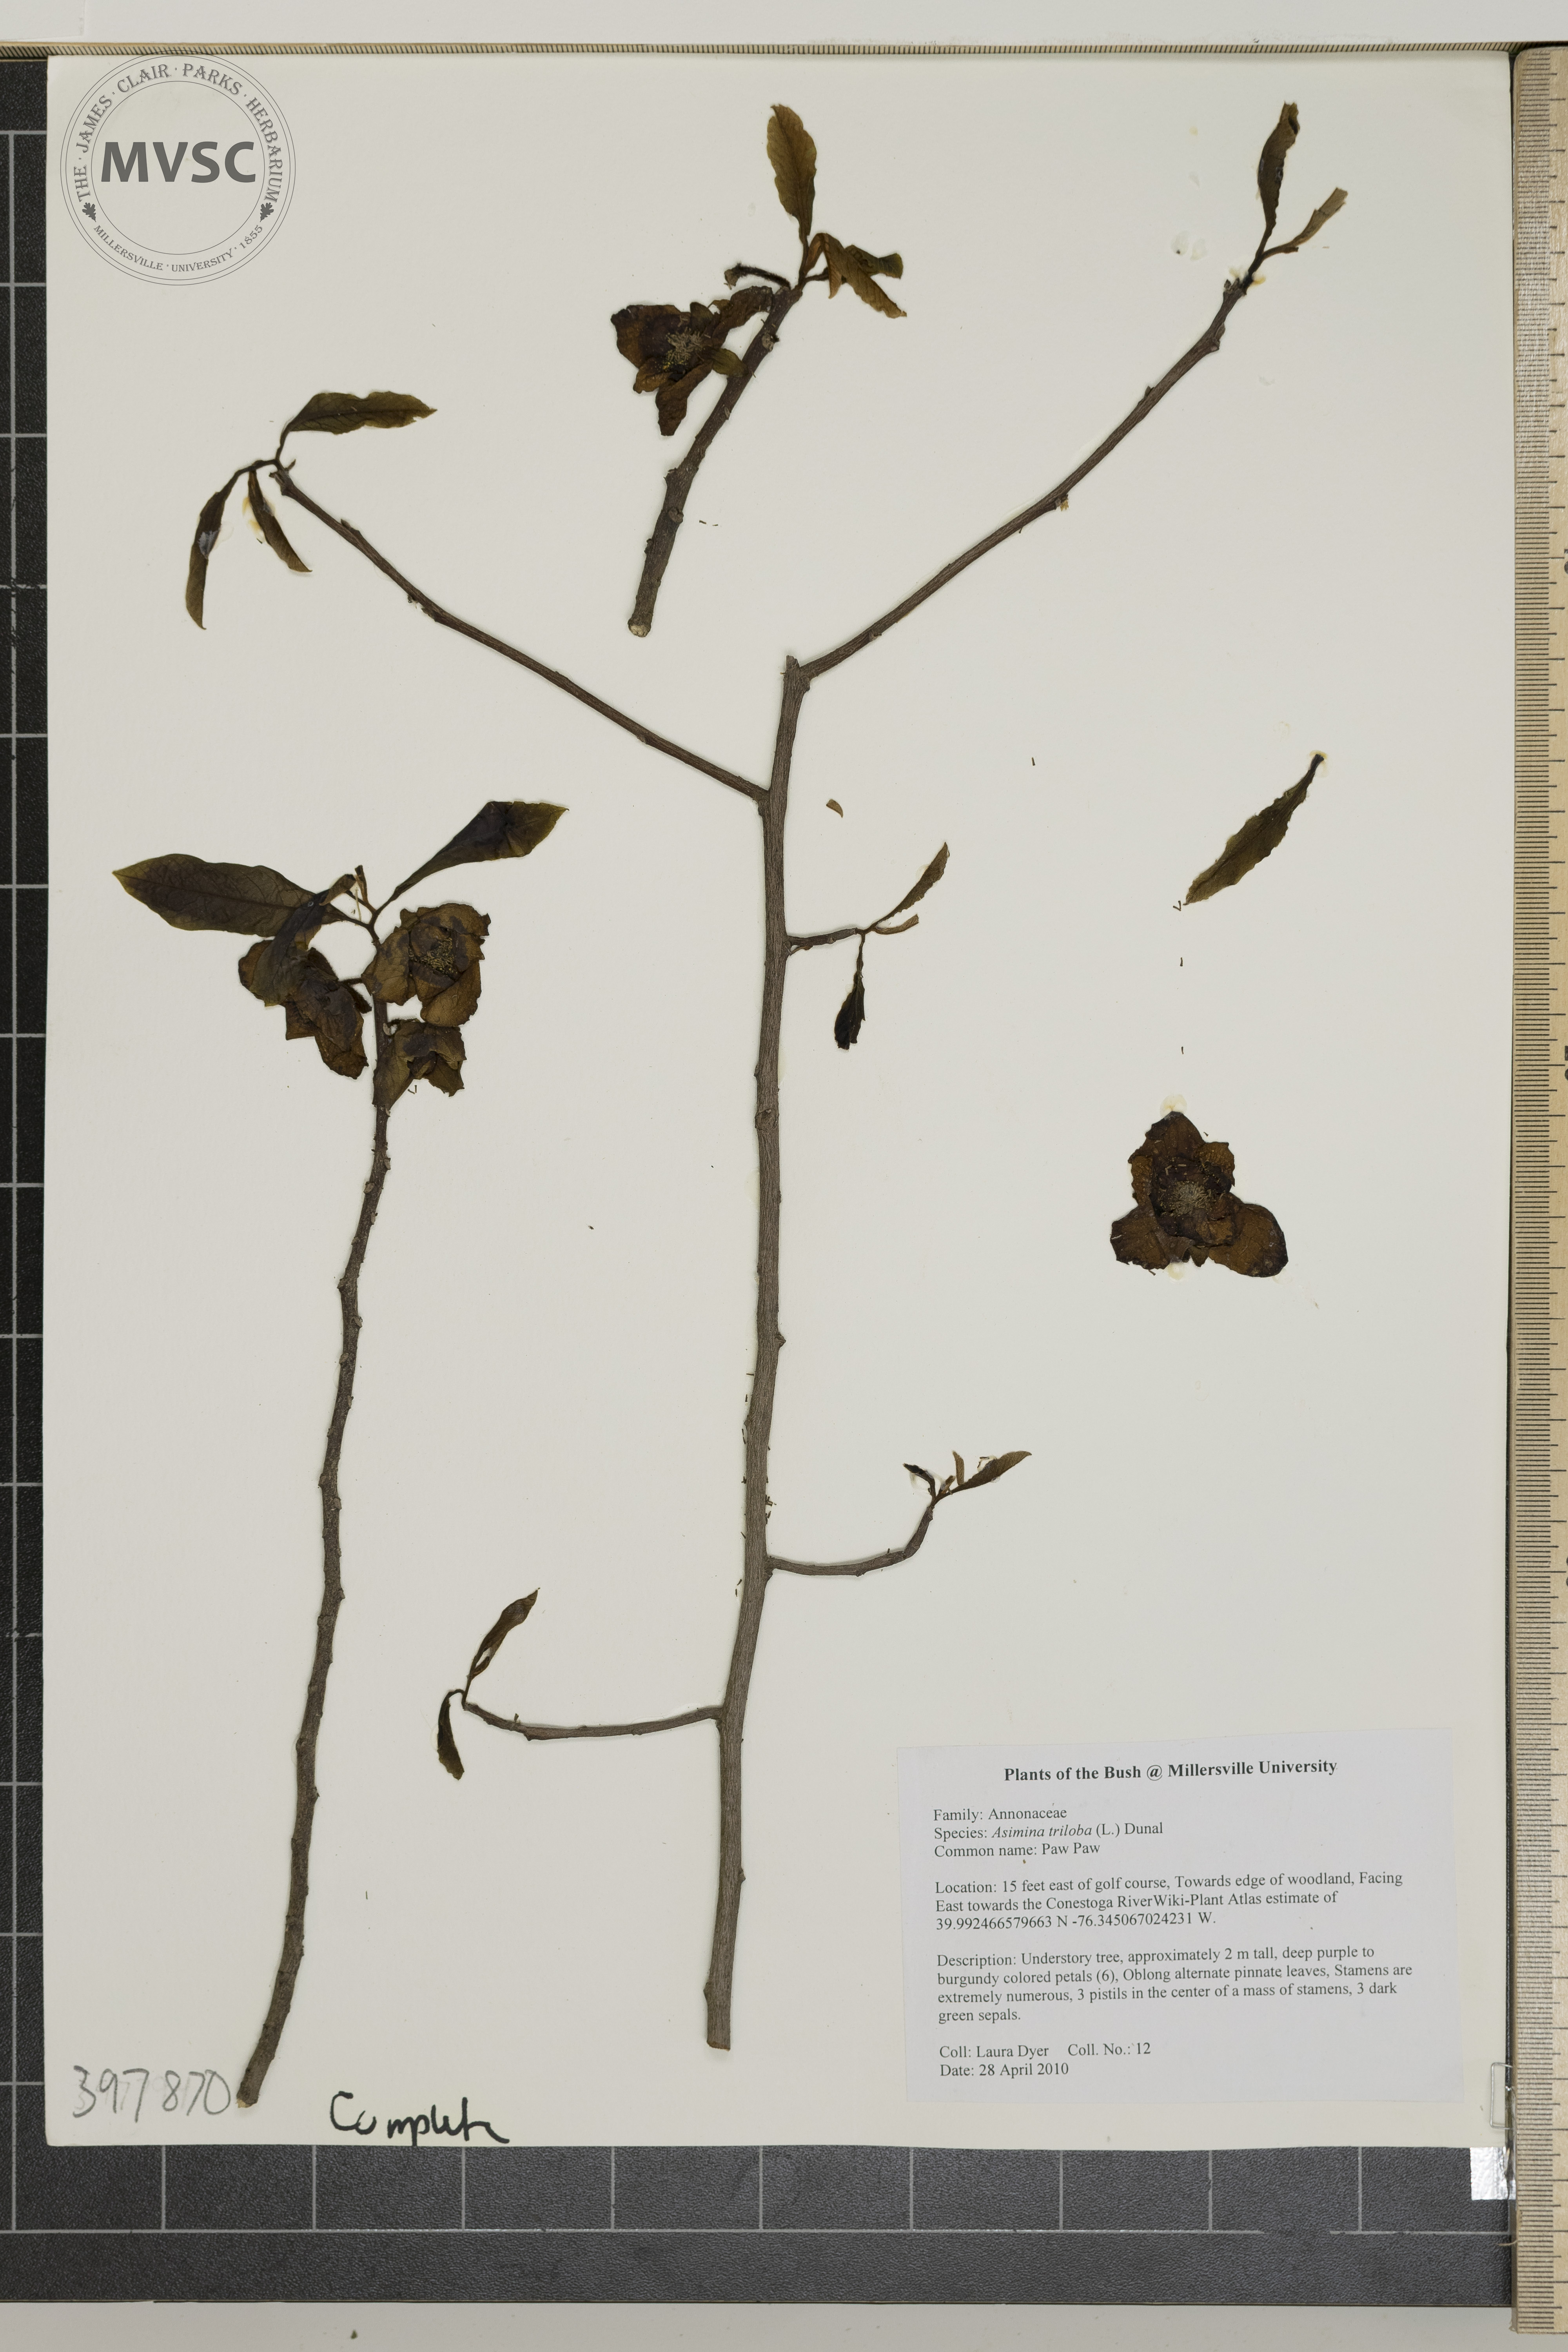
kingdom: Plantae
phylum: Tracheophyta
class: Magnoliopsida
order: Magnoliales
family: Annonaceae
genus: Asimina
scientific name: Asimina triloba
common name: Pawpaw
